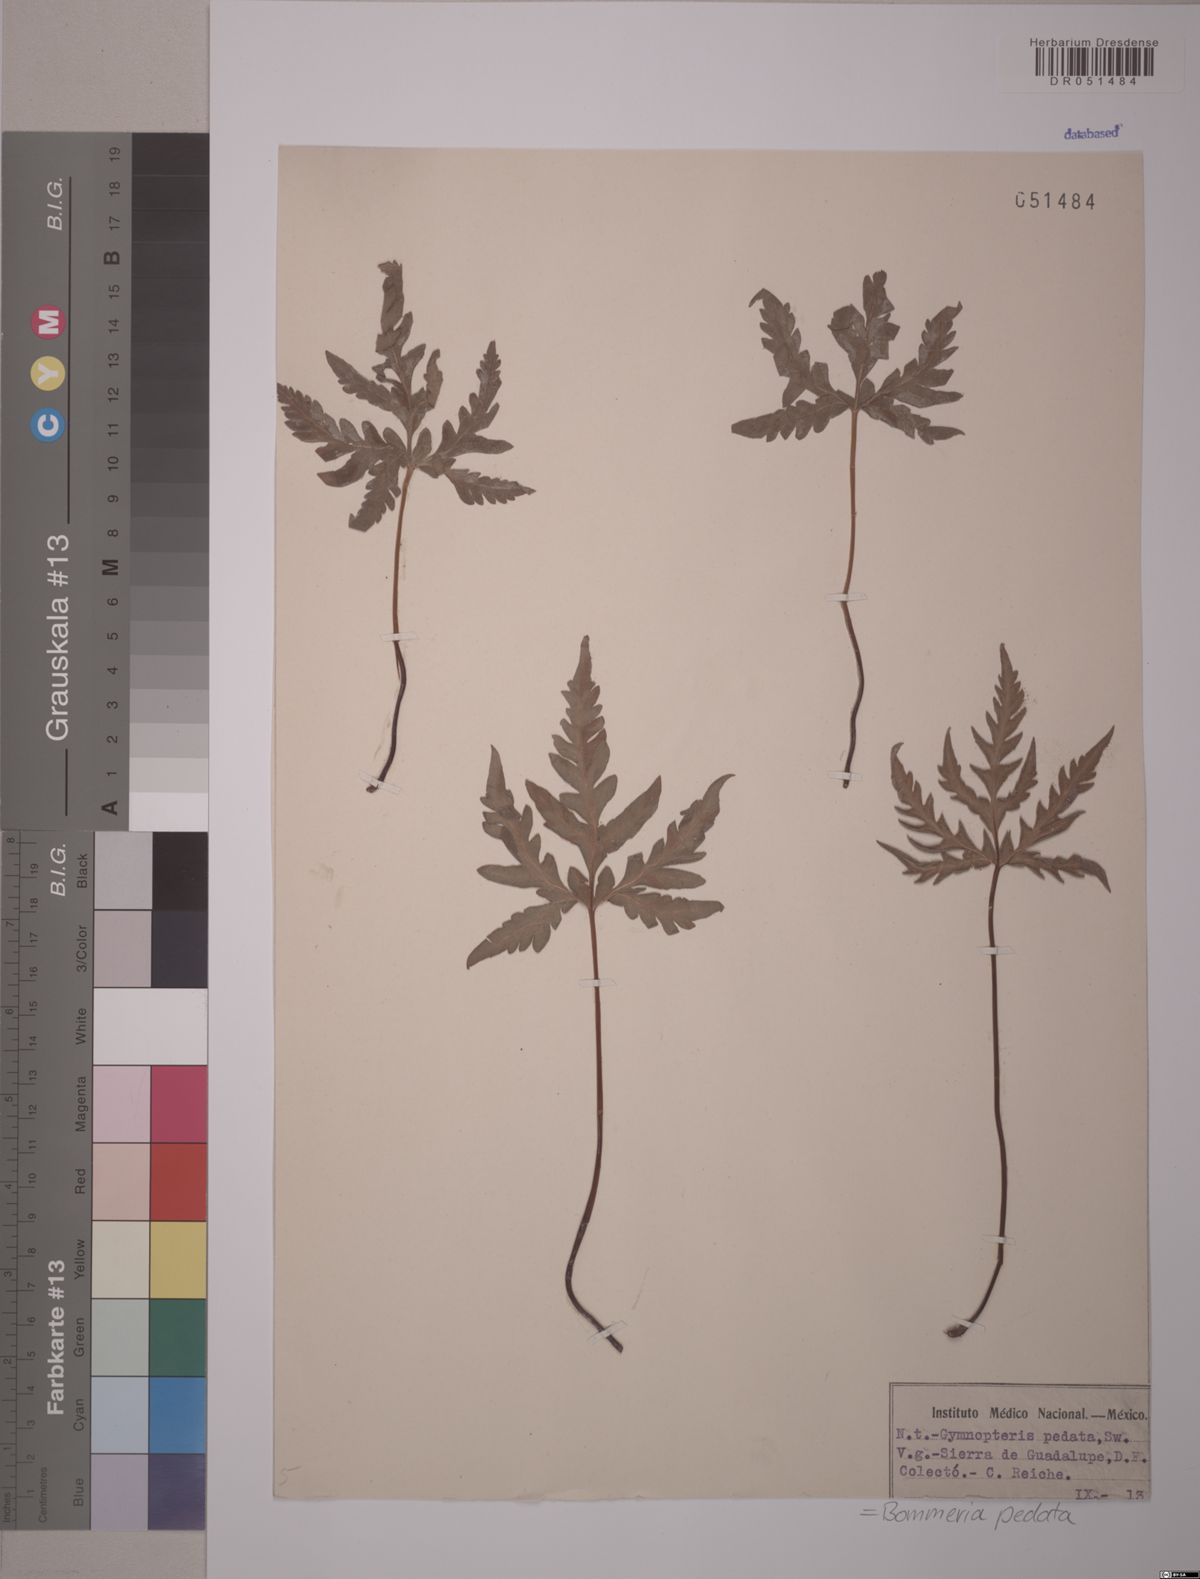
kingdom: Plantae
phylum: Tracheophyta
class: Polypodiopsida
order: Polypodiales
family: Pteridaceae
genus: Bommeria
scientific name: Bommeria pedata
